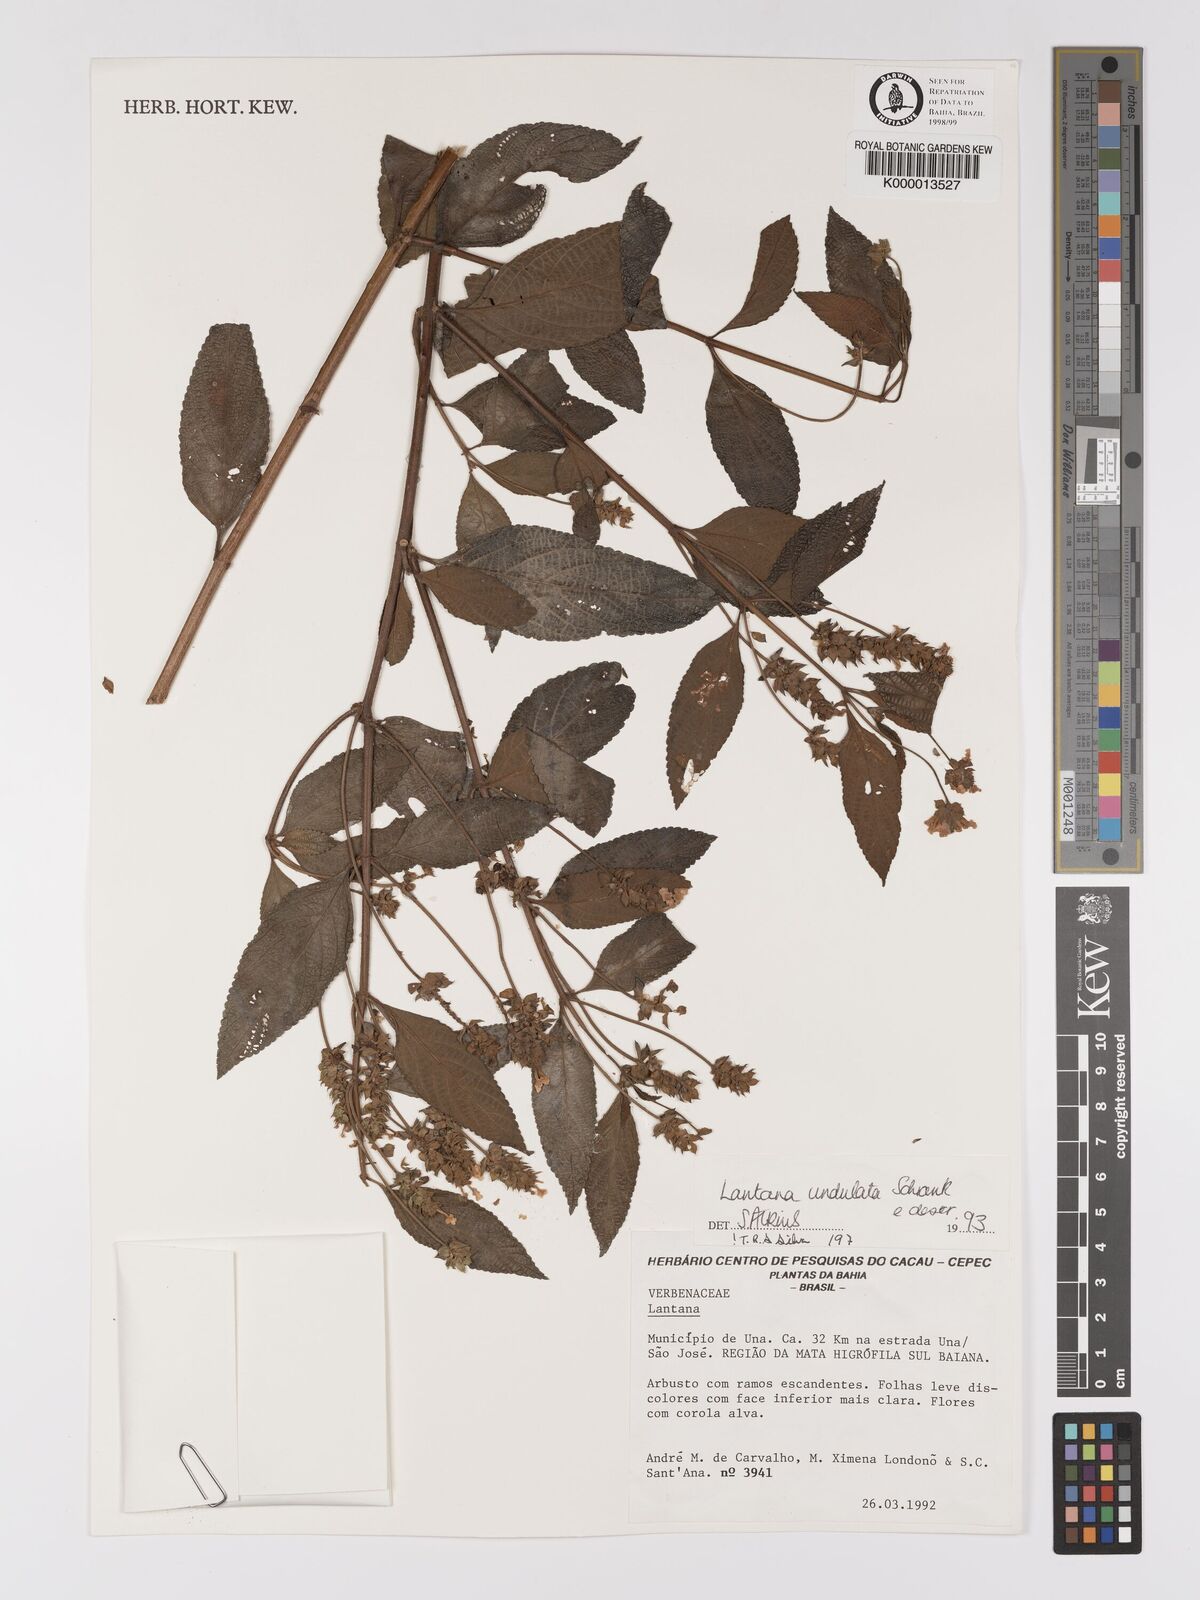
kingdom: Plantae
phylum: Tracheophyta
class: Magnoliopsida
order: Lamiales
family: Verbenaceae
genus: Lantana
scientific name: Lantana undulata
